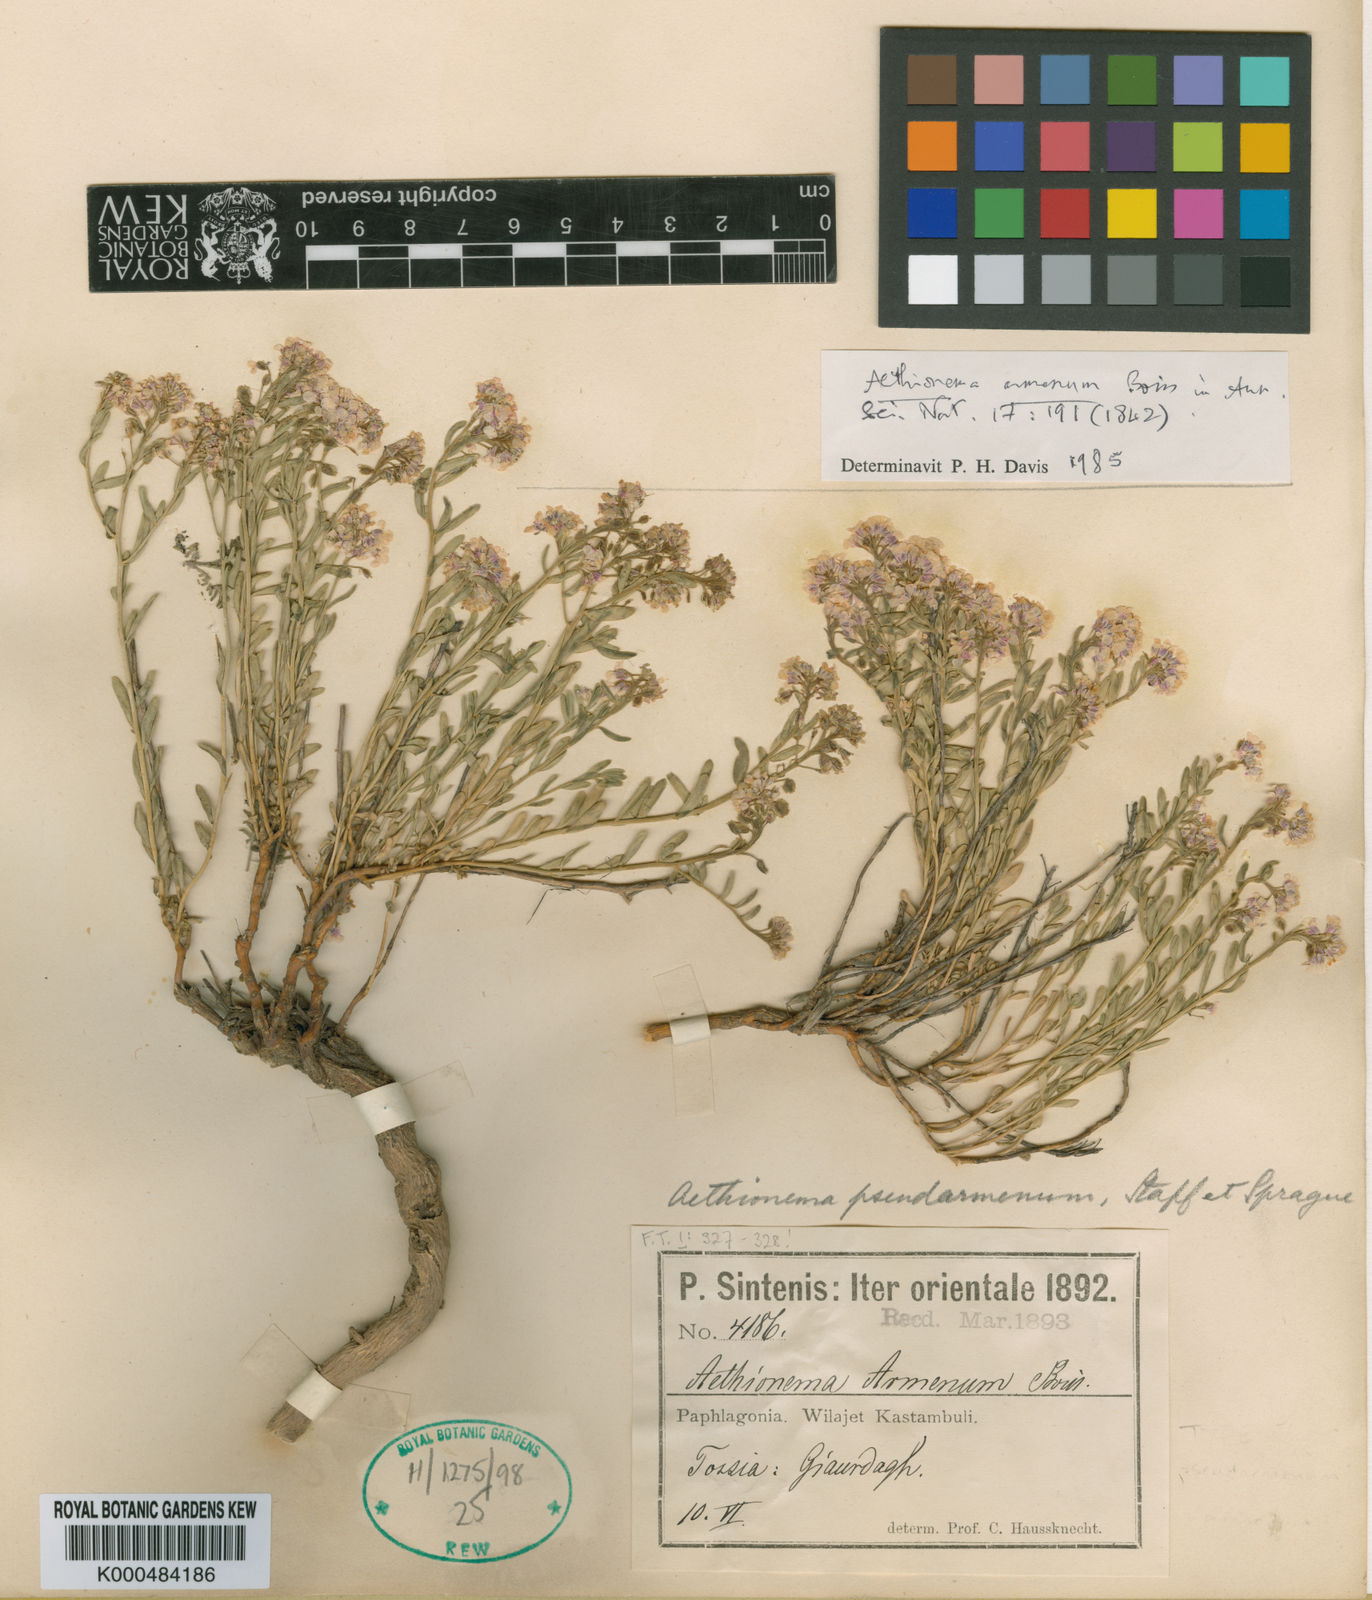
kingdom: Plantae
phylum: Tracheophyta
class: Magnoliopsida
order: Brassicales
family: Brassicaceae
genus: Aethionema
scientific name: Aethionema armenum
